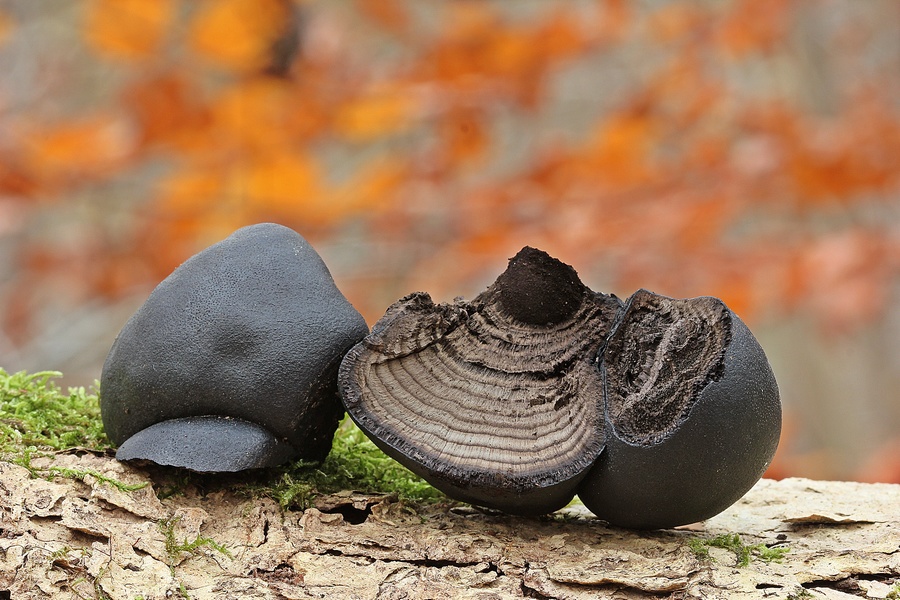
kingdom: Fungi
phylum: Ascomycota
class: Sordariomycetes
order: Xylariales
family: Hypoxylaceae
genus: Daldinia
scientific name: Daldinia concentrica
